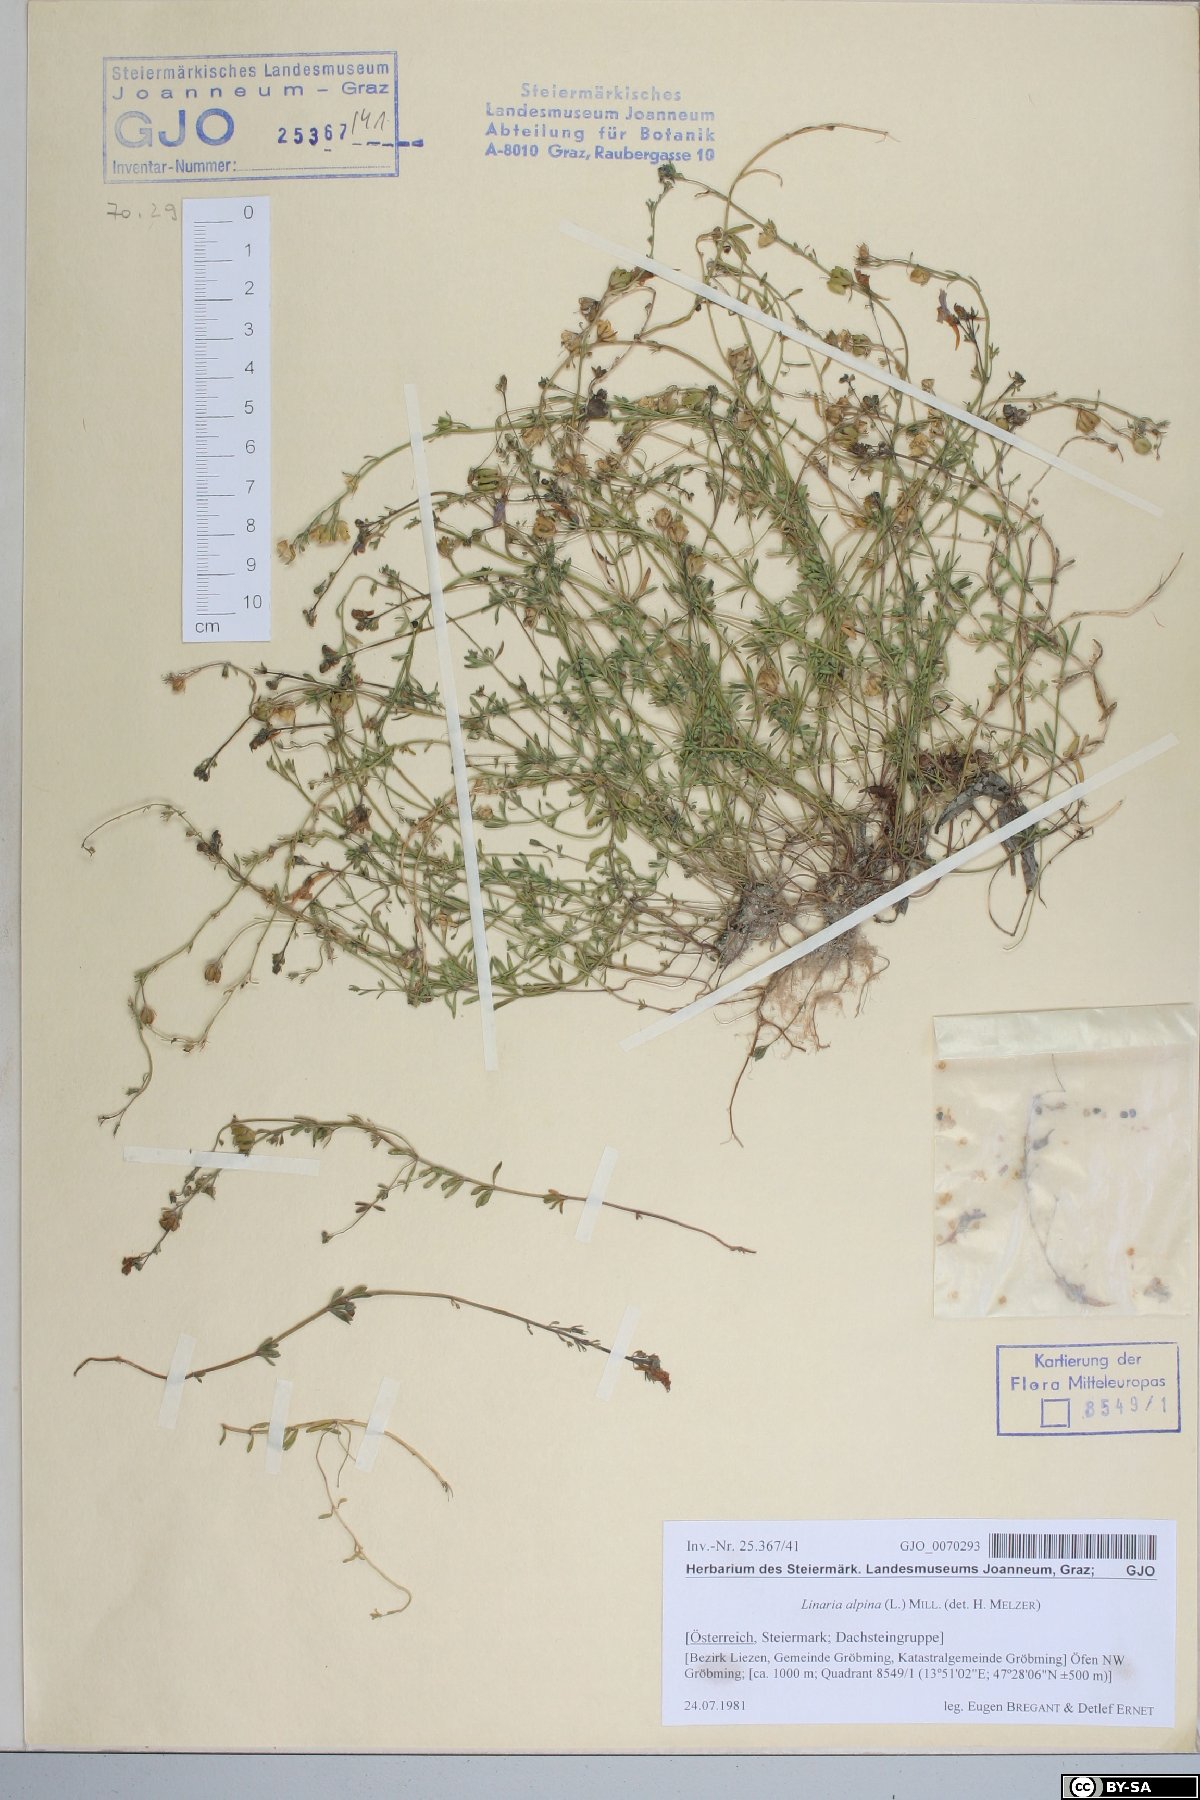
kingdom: Plantae
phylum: Tracheophyta
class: Magnoliopsida
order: Lamiales
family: Plantaginaceae
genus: Linaria
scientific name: Linaria alpina
